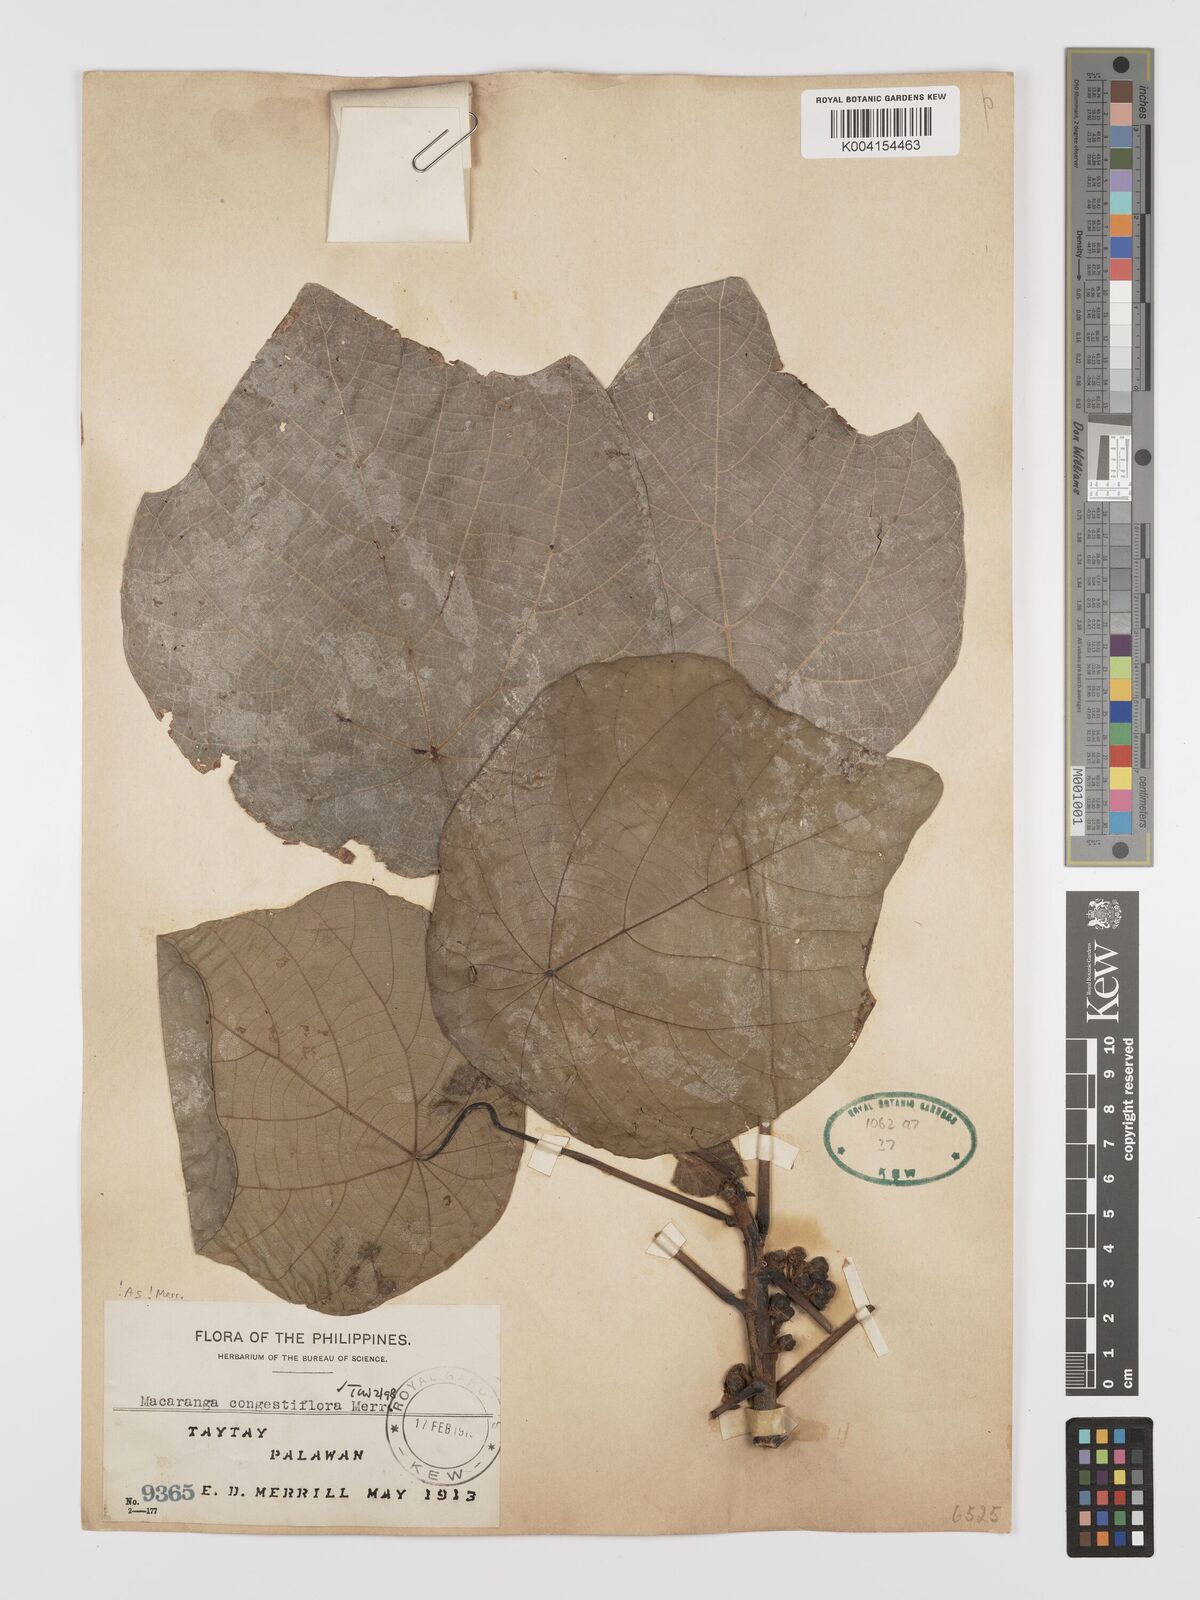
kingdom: Plantae
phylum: Tracheophyta
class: Magnoliopsida
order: Malpighiales
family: Euphorbiaceae
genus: Macaranga
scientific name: Macaranga congestiflora
